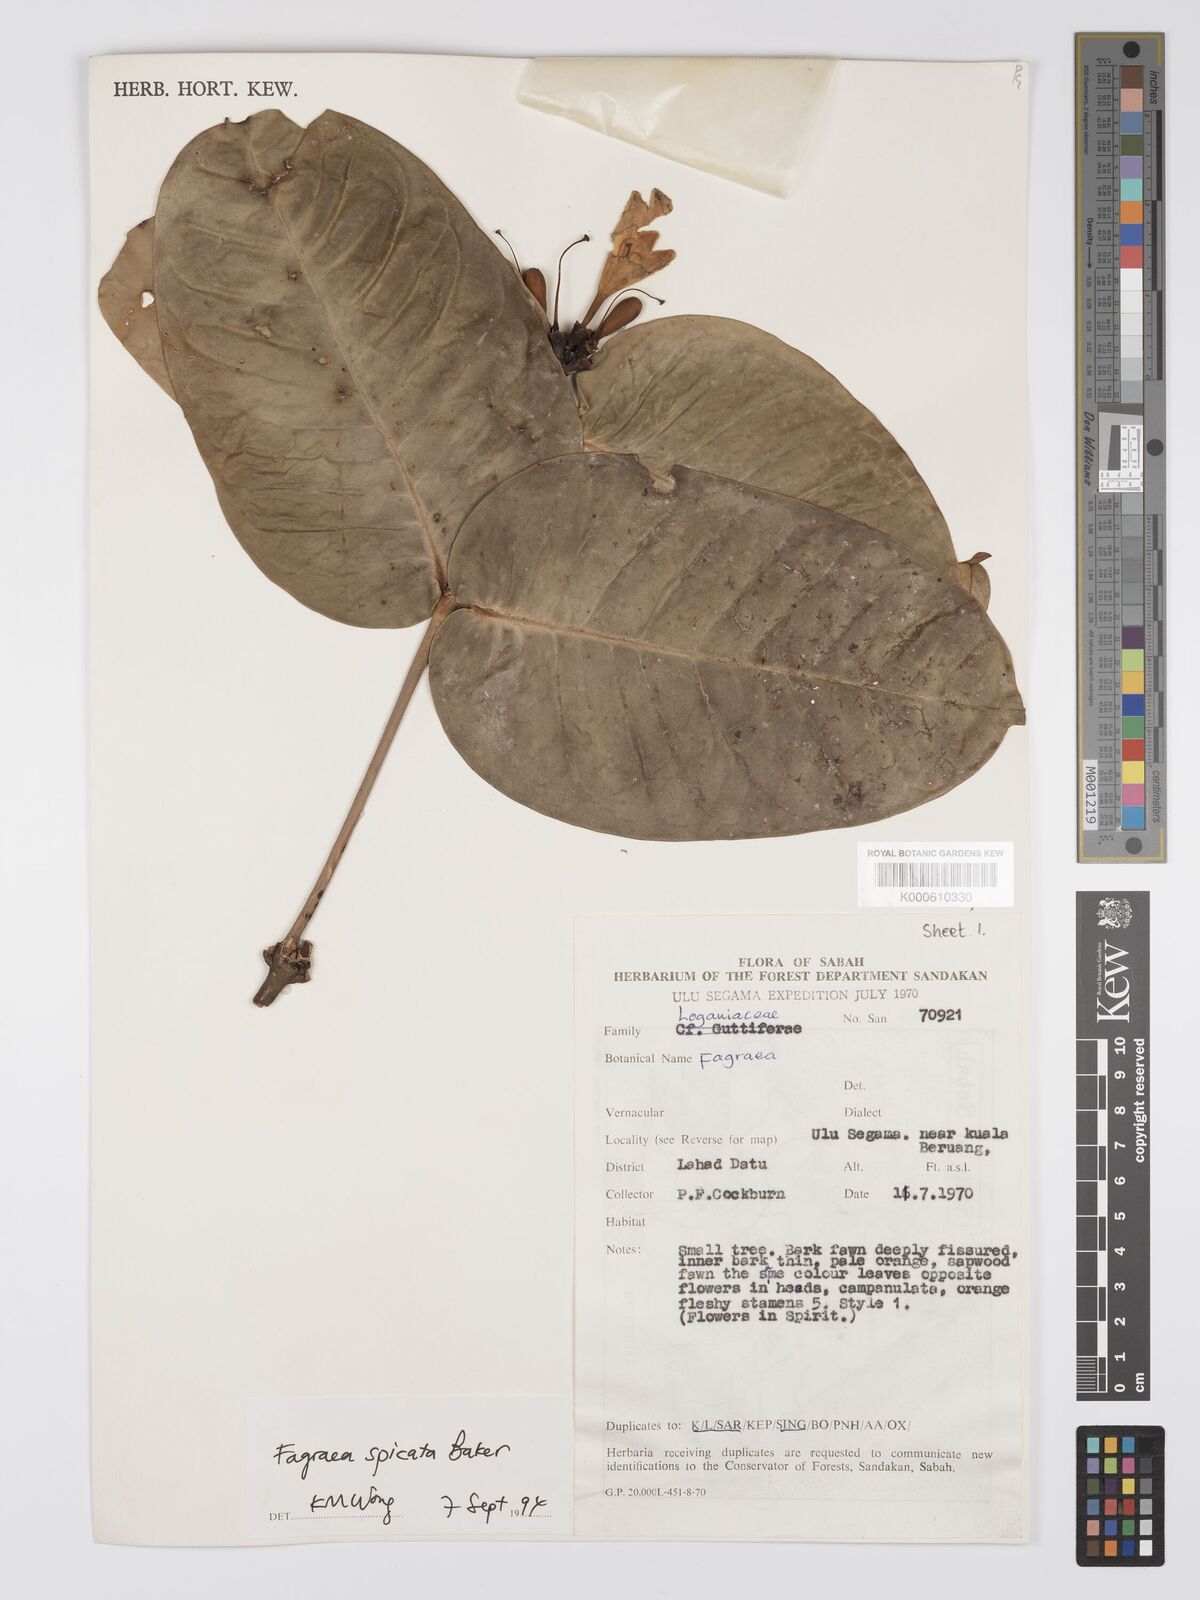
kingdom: Plantae
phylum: Tracheophyta
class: Magnoliopsida
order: Gentianales
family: Gentianaceae
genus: Utania
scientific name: Utania spicata
